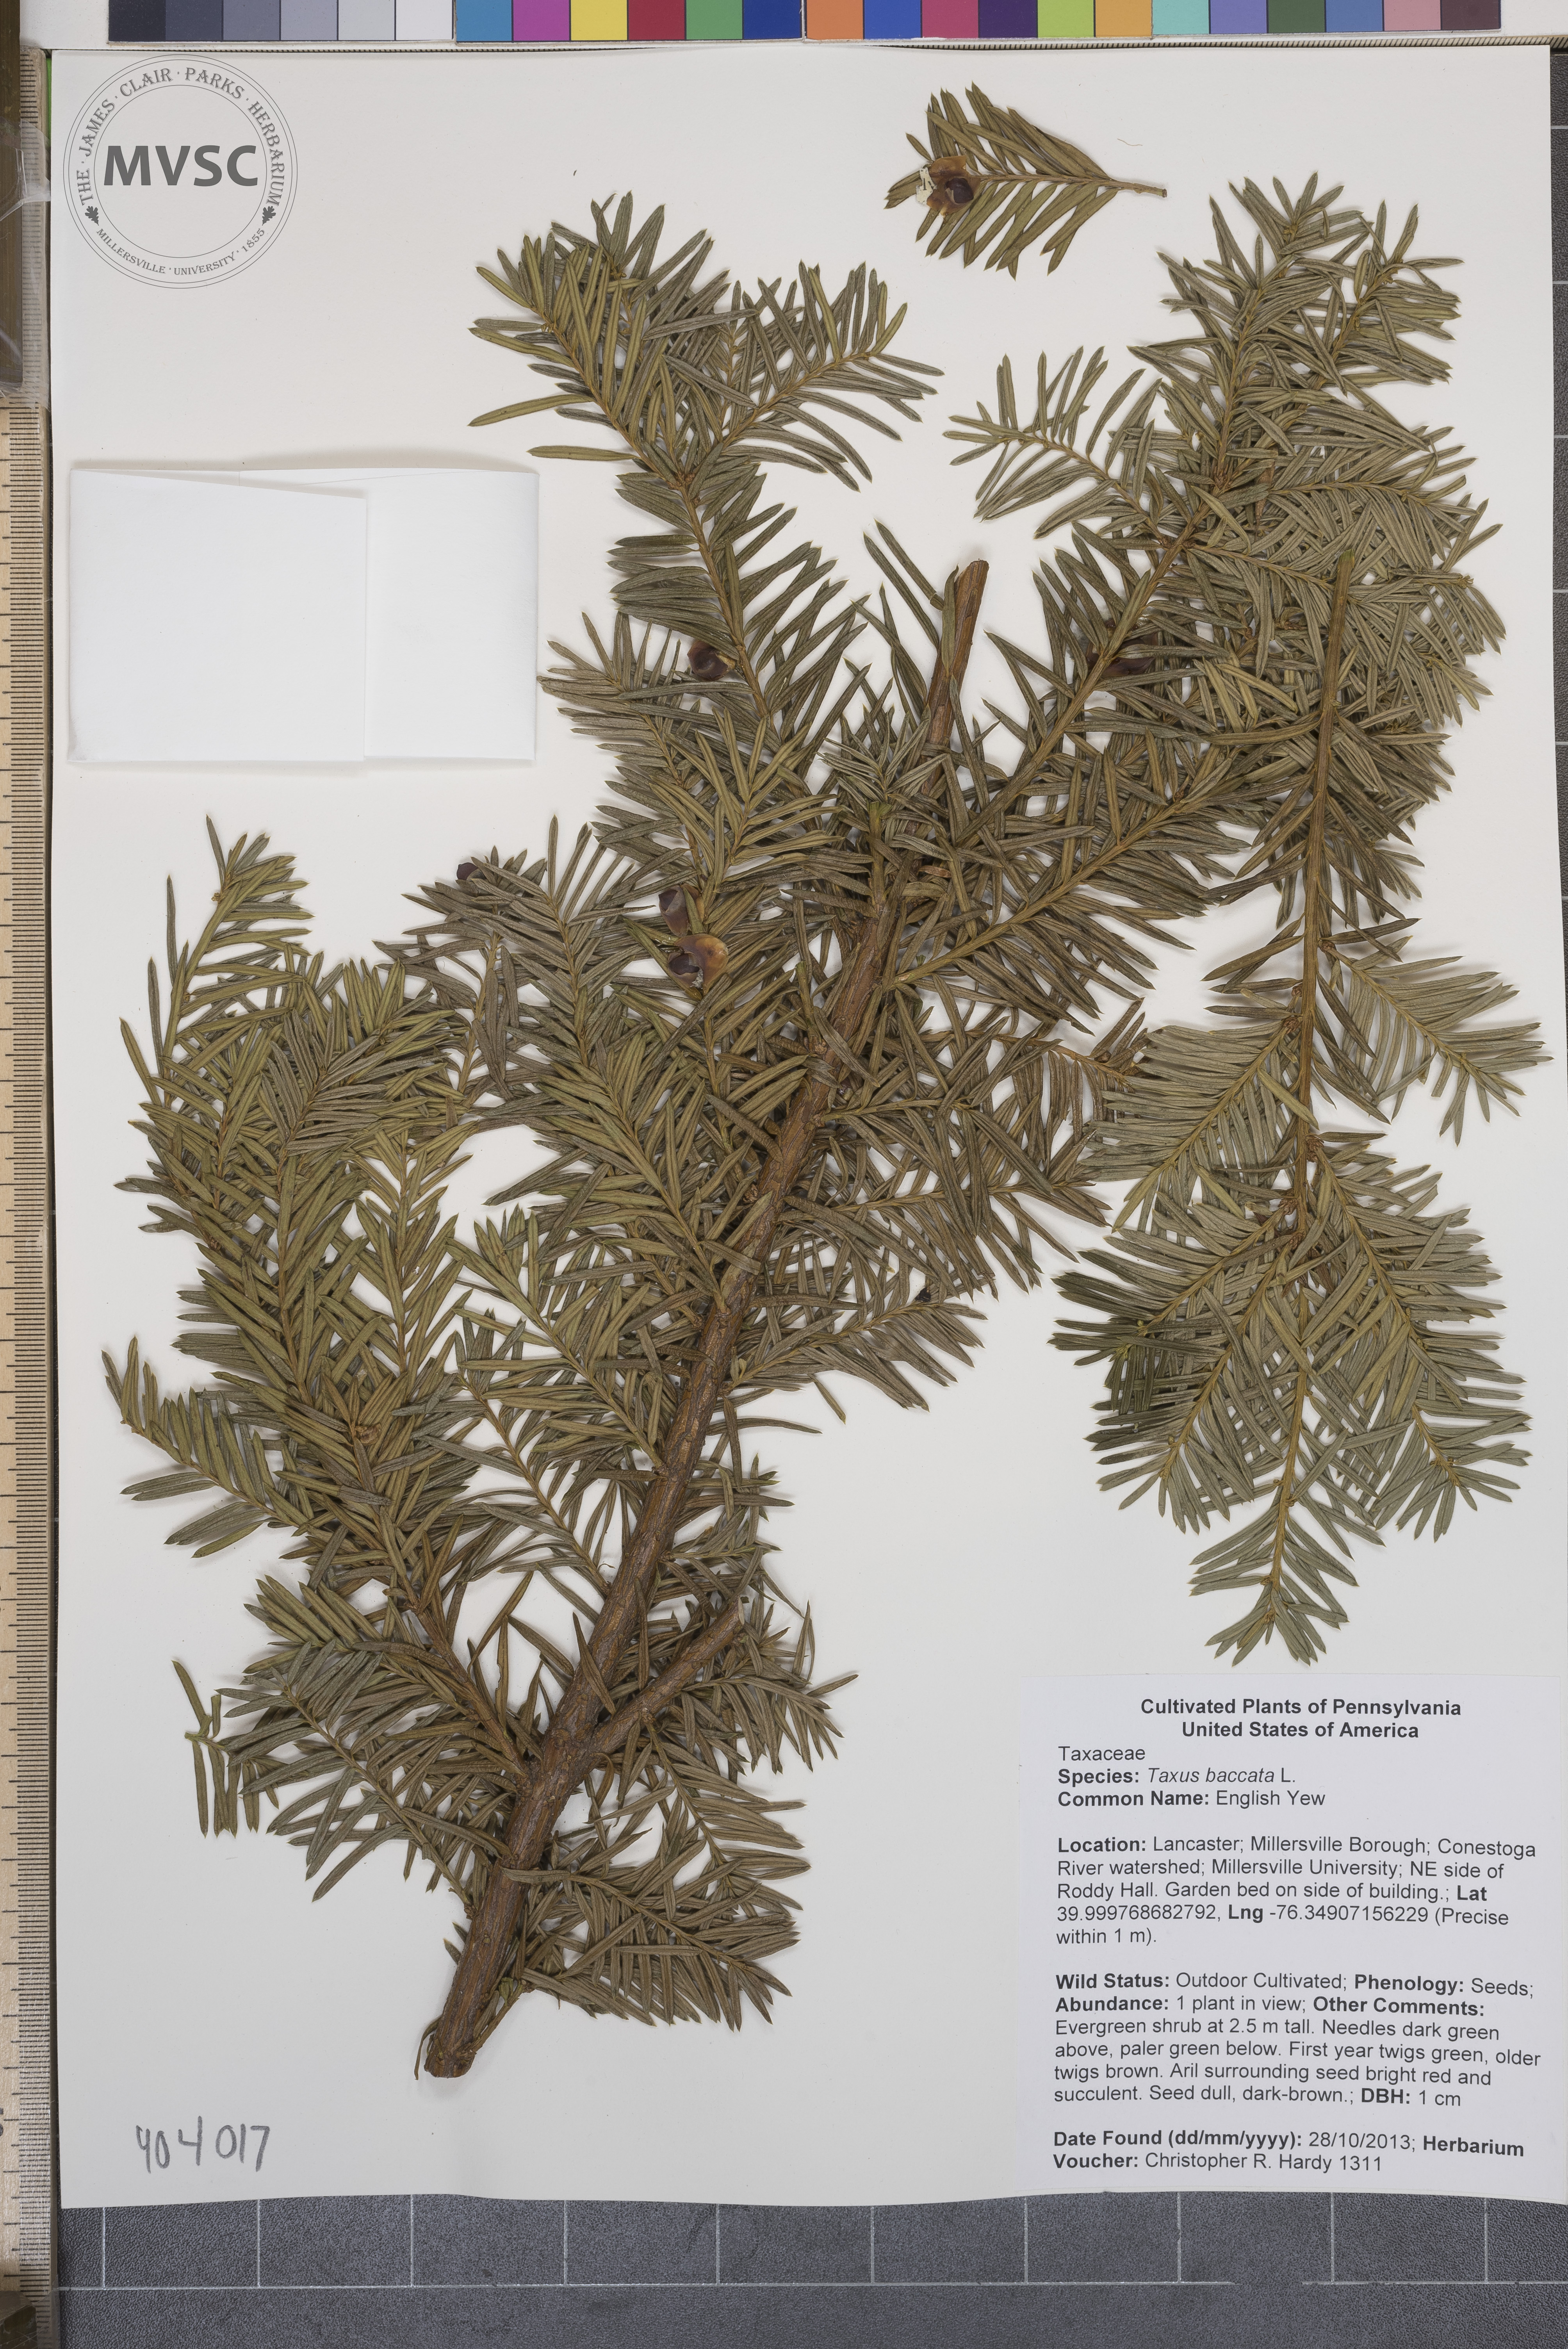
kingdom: Plantae
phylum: Tracheophyta
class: Pinopsida
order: Pinales
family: Taxaceae
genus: Taxus
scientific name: Taxus baccata
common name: English Yew
